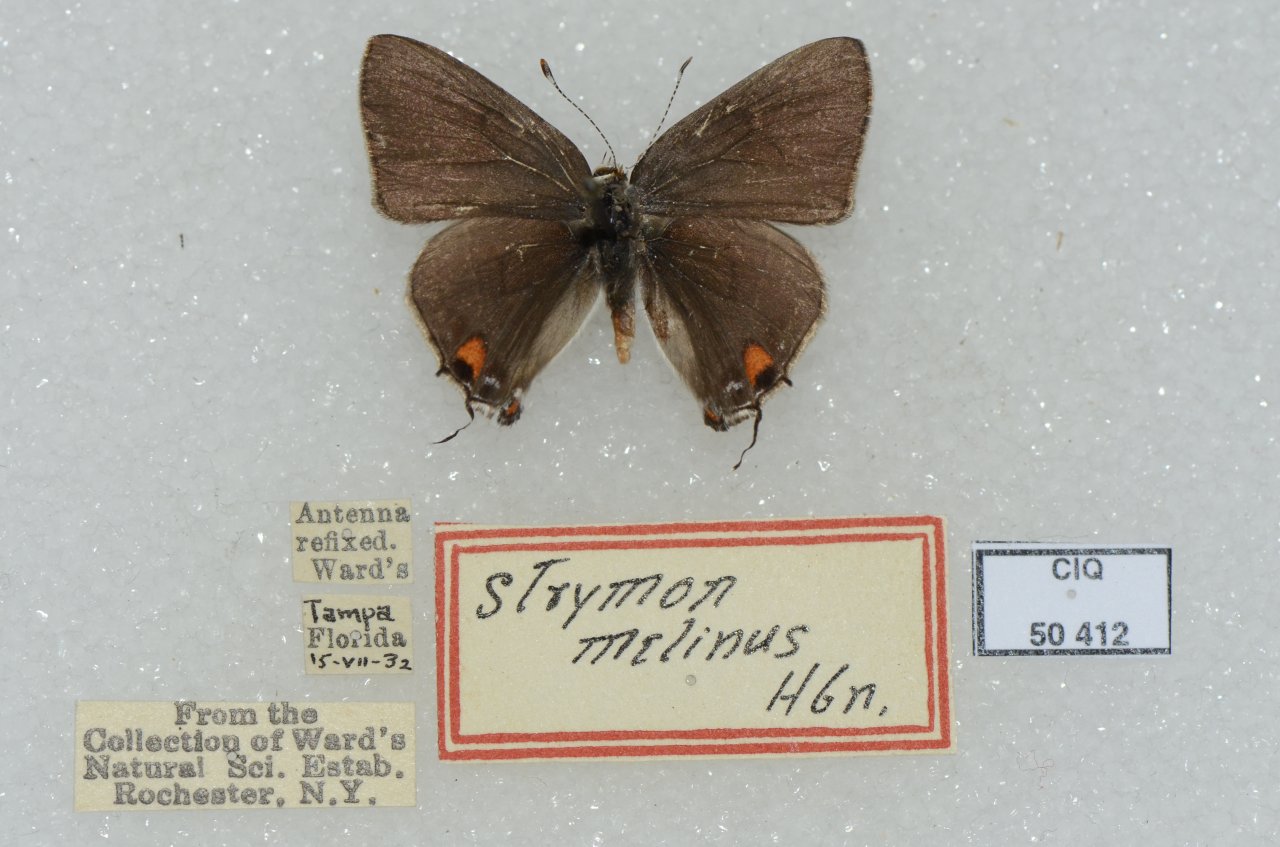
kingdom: Animalia
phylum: Arthropoda
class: Insecta
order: Lepidoptera
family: Lycaenidae
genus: Strymon
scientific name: Strymon melinus
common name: Gray Hairstreak
